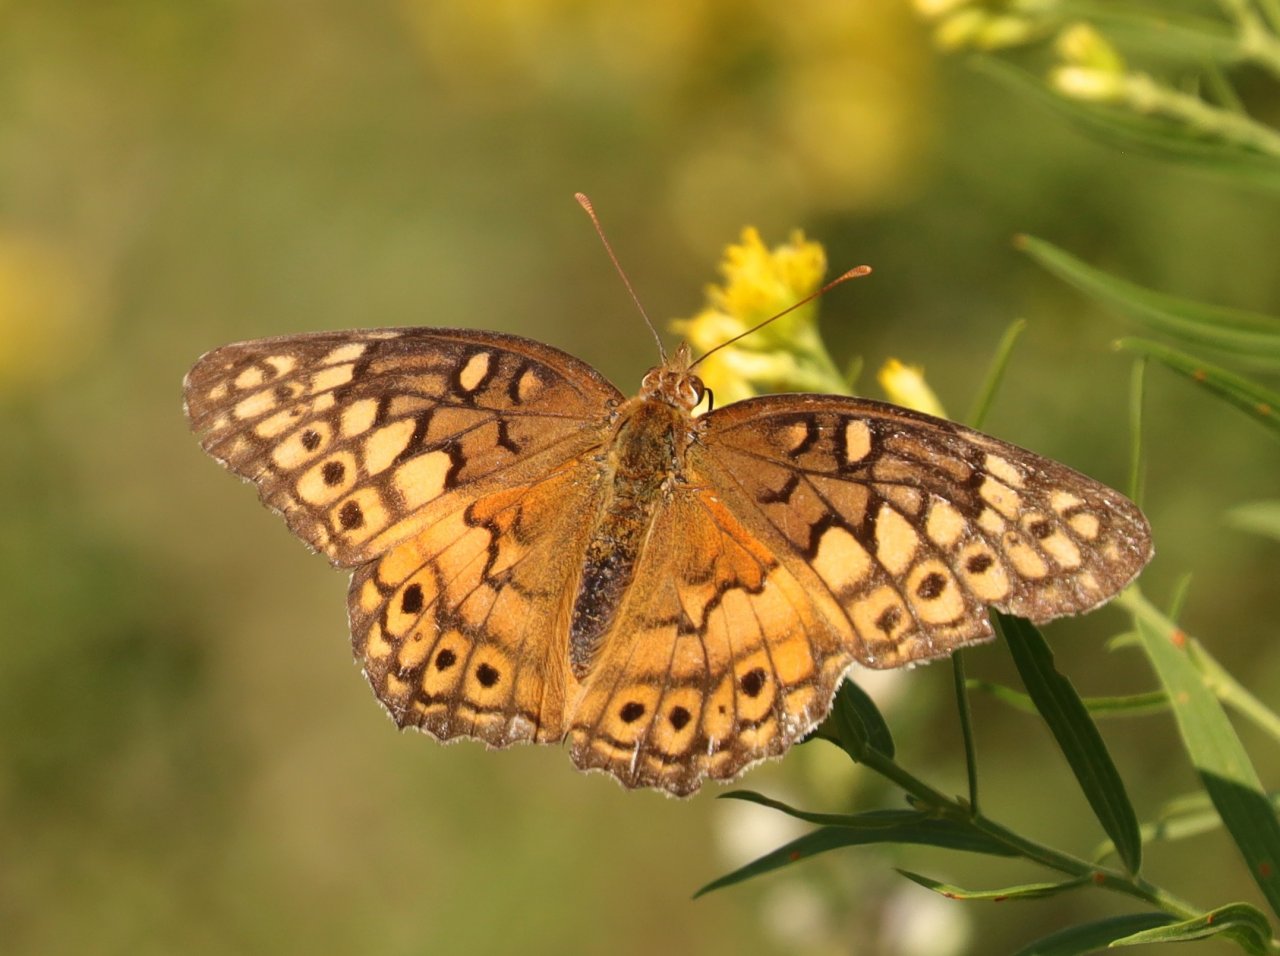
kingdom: Animalia
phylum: Arthropoda
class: Insecta
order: Lepidoptera
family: Nymphalidae
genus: Euptoieta
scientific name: Euptoieta claudia
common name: Variegated Fritillary
